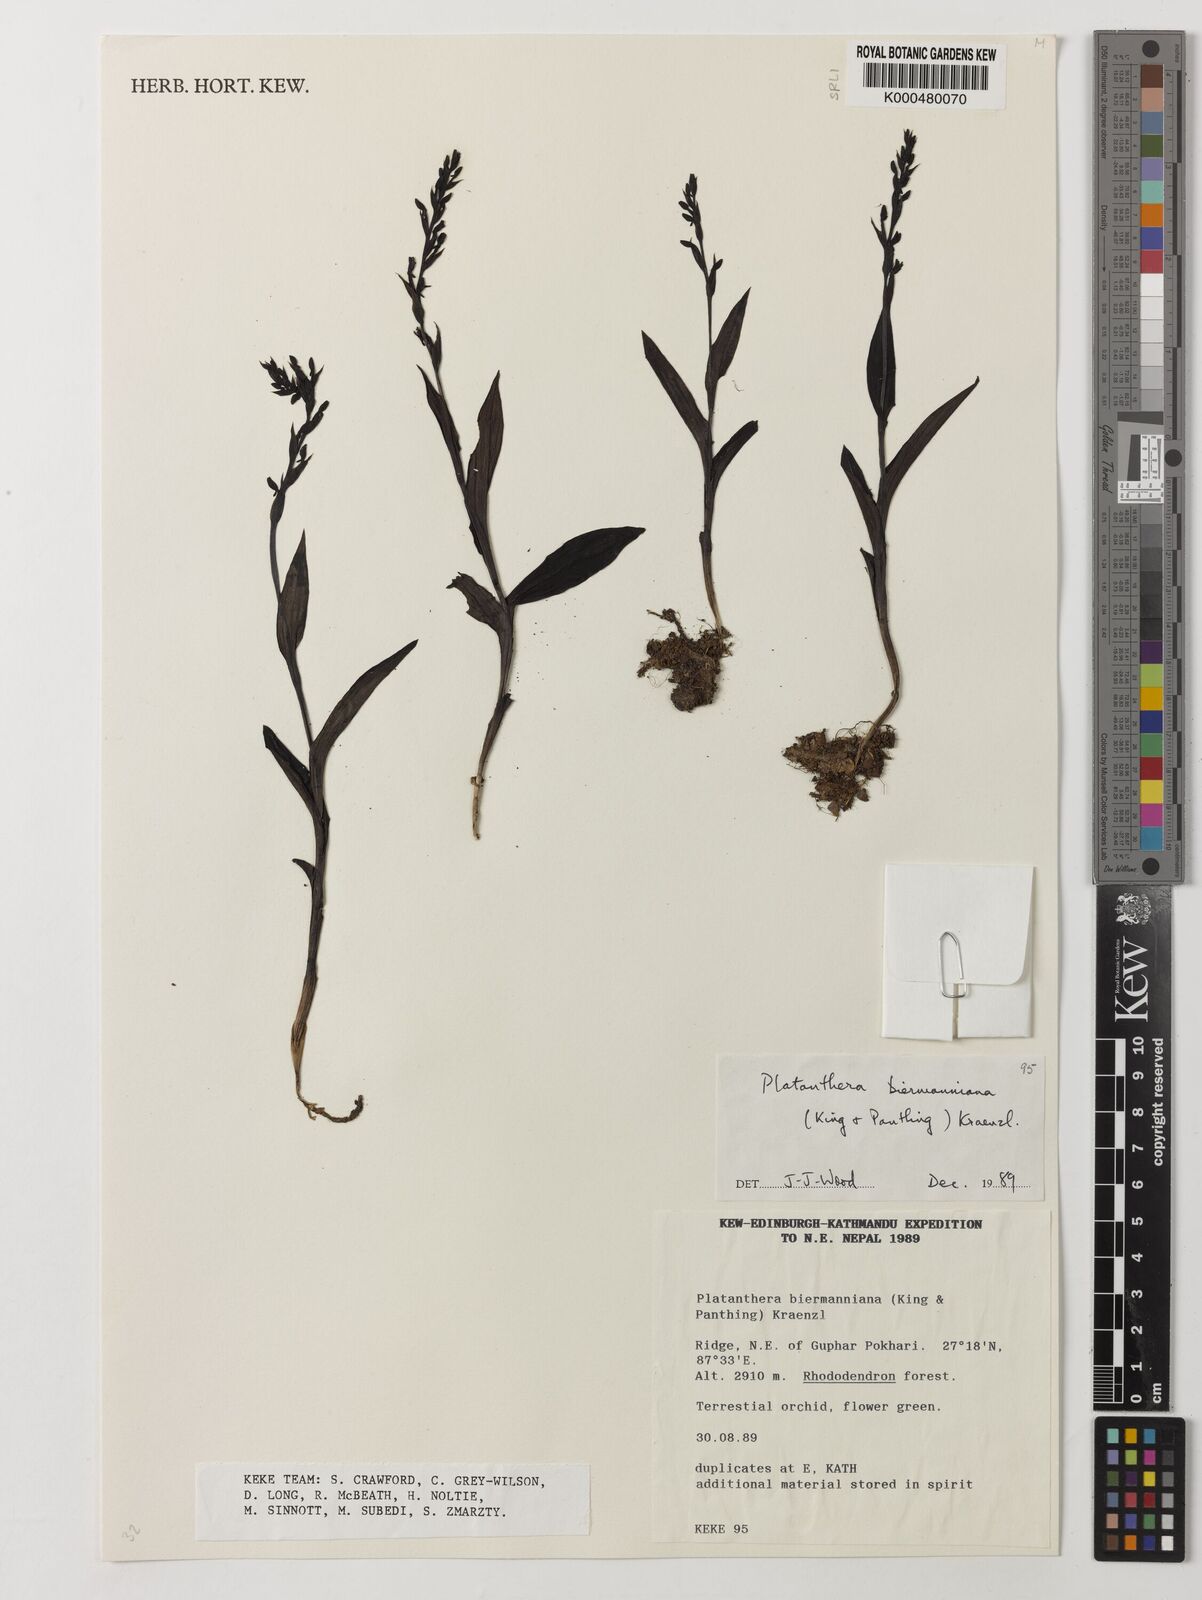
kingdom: Plantae
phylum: Tracheophyta
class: Liliopsida
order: Asparagales
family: Orchidaceae
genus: Peristylus
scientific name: Peristylus biermannianus
